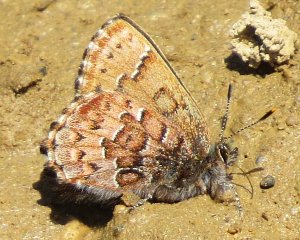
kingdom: Animalia
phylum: Arthropoda
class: Insecta
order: Lepidoptera
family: Lycaenidae
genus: Incisalia
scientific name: Incisalia niphon
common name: Eastern Pine Elfin
